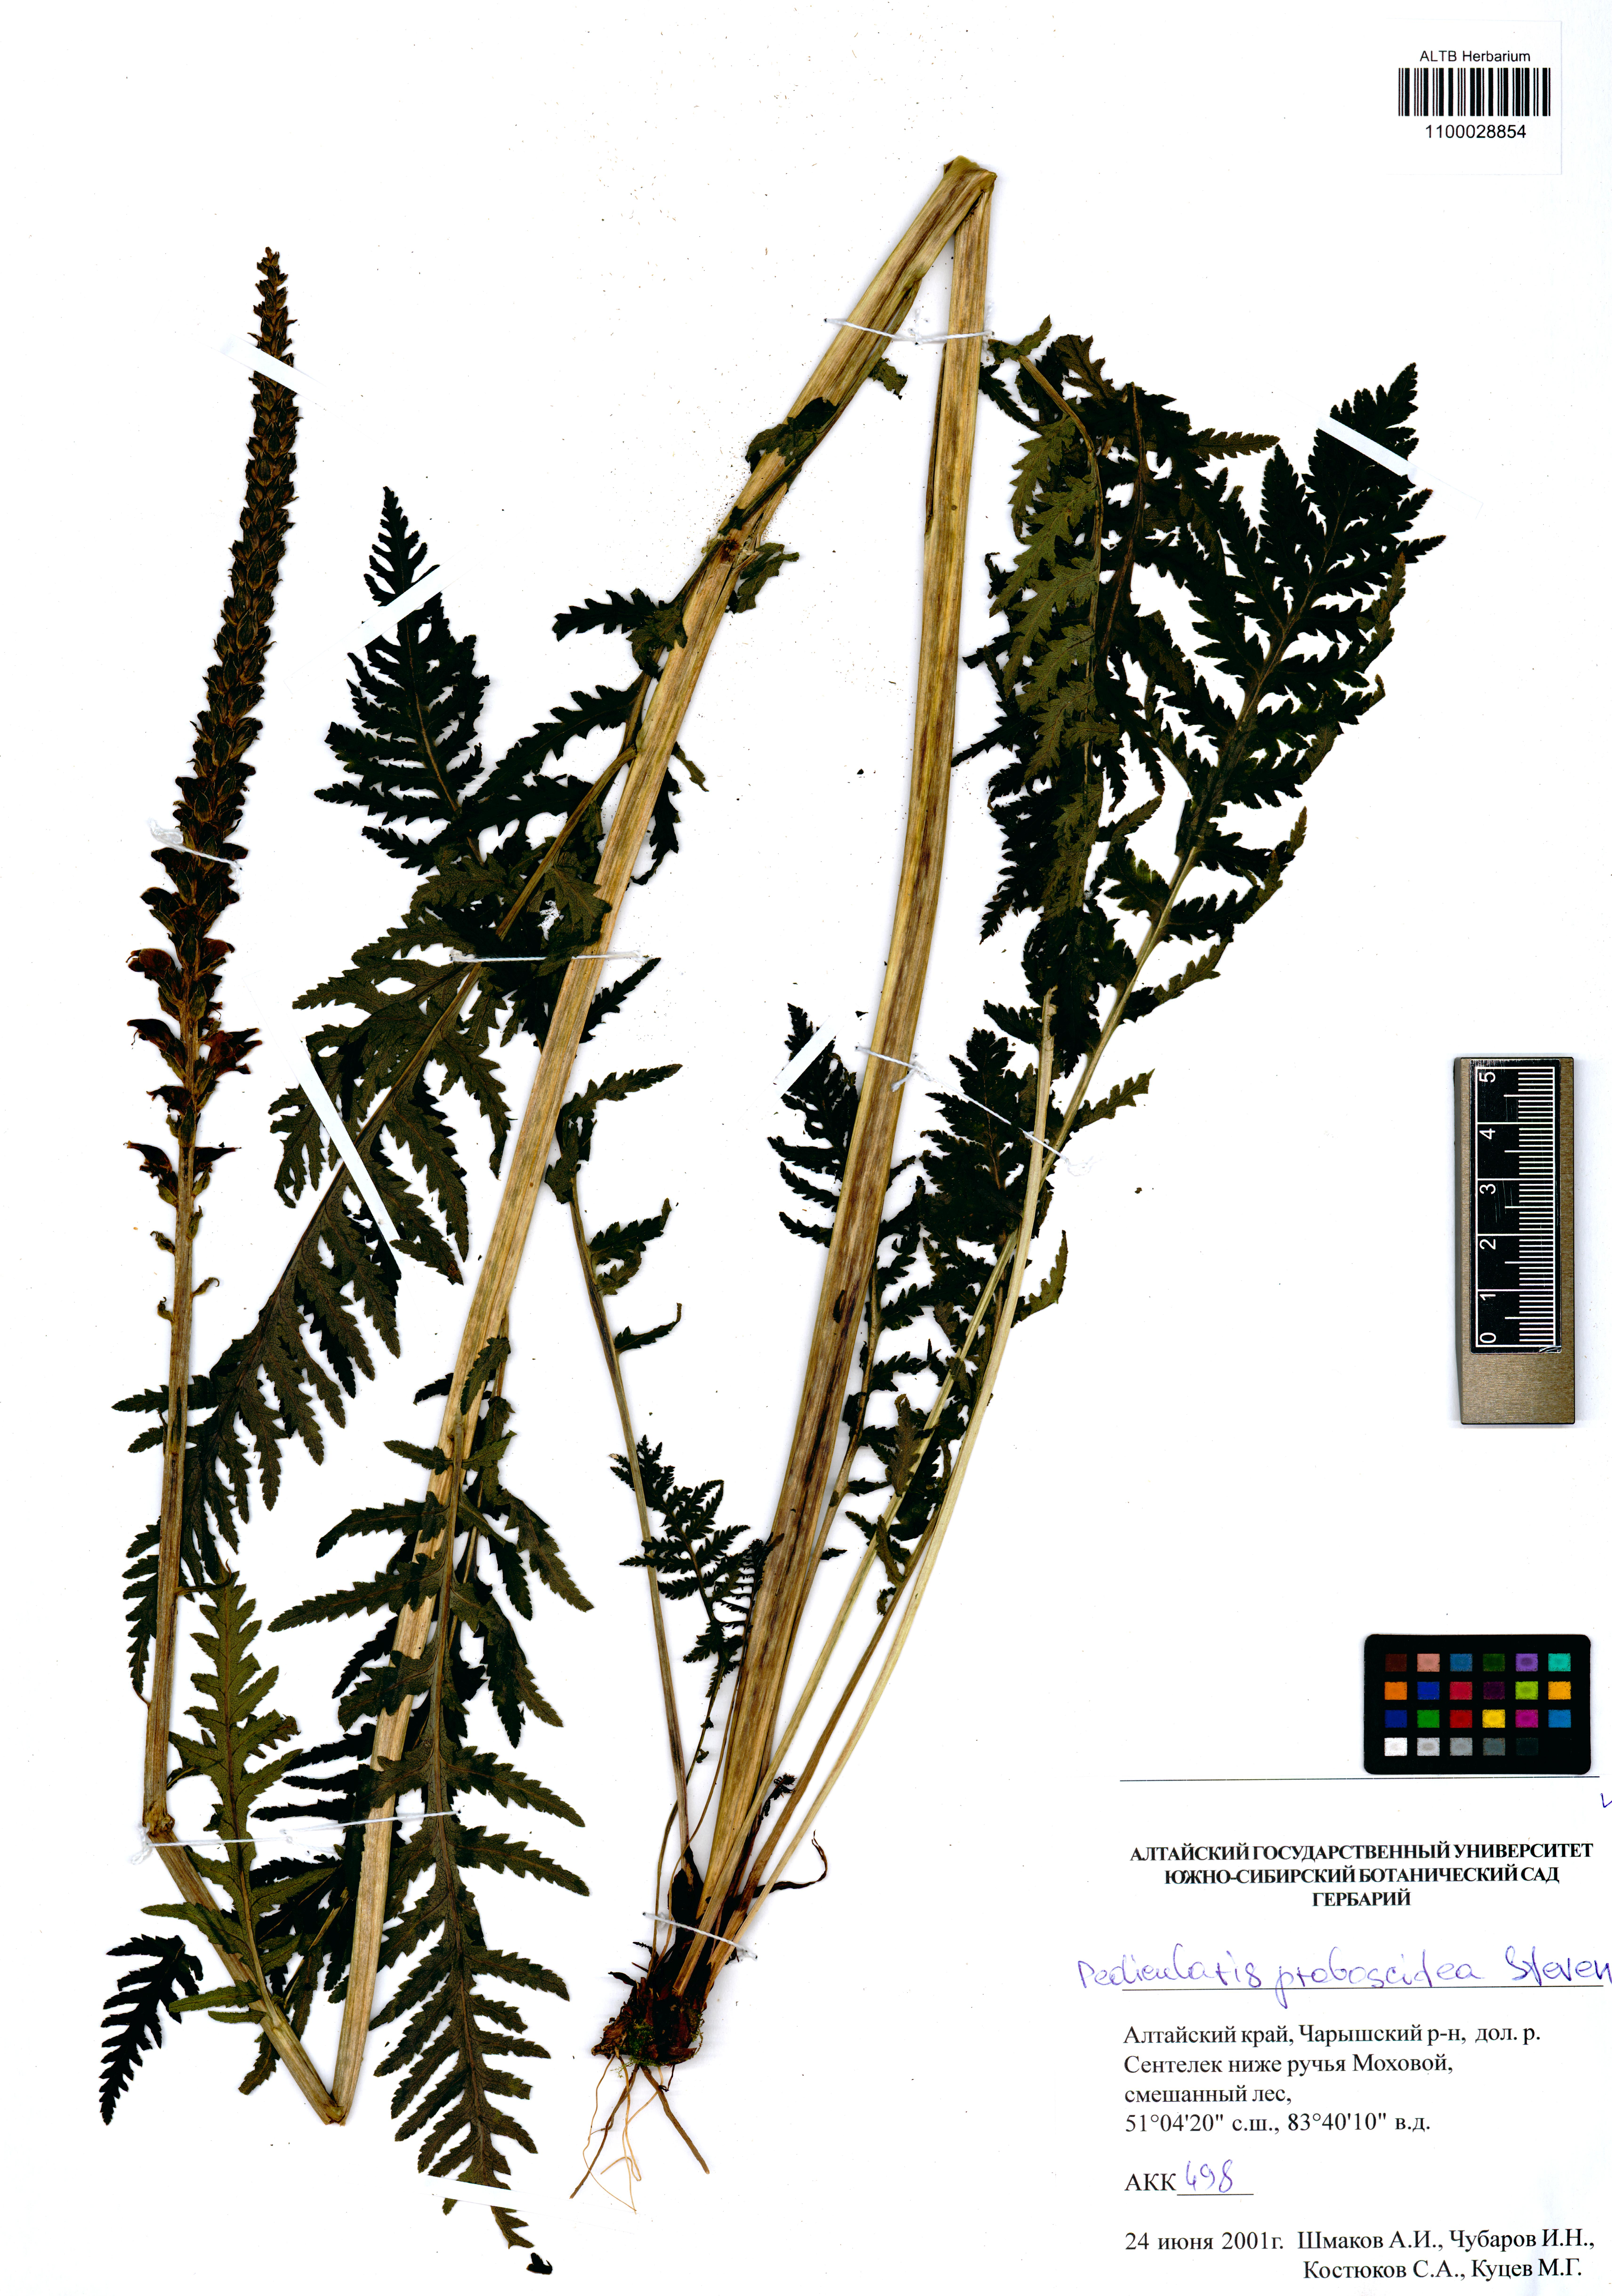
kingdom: Plantae
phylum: Tracheophyta
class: Magnoliopsida
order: Lamiales
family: Orobanchaceae
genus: Pedicularis
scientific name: Pedicularis proboscidea
